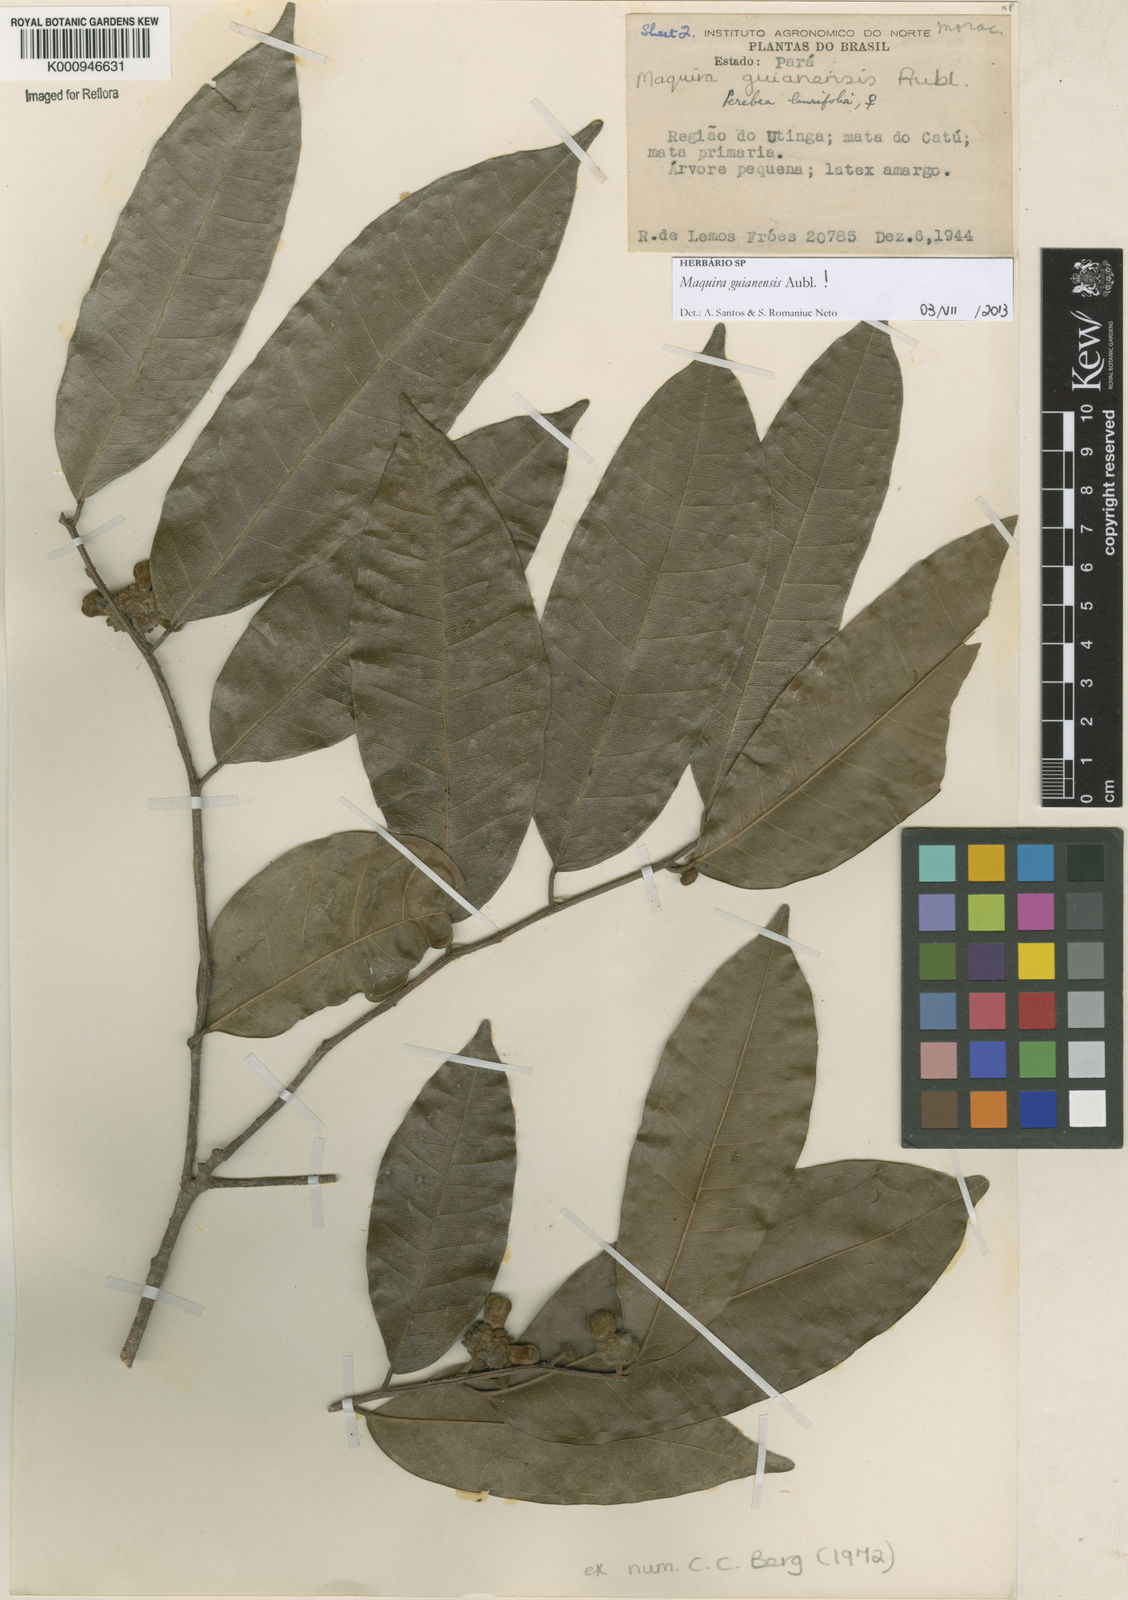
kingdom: Plantae
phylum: Tracheophyta
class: Magnoliopsida
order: Rosales
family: Moraceae
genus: Maquira
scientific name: Maquira guianensis
